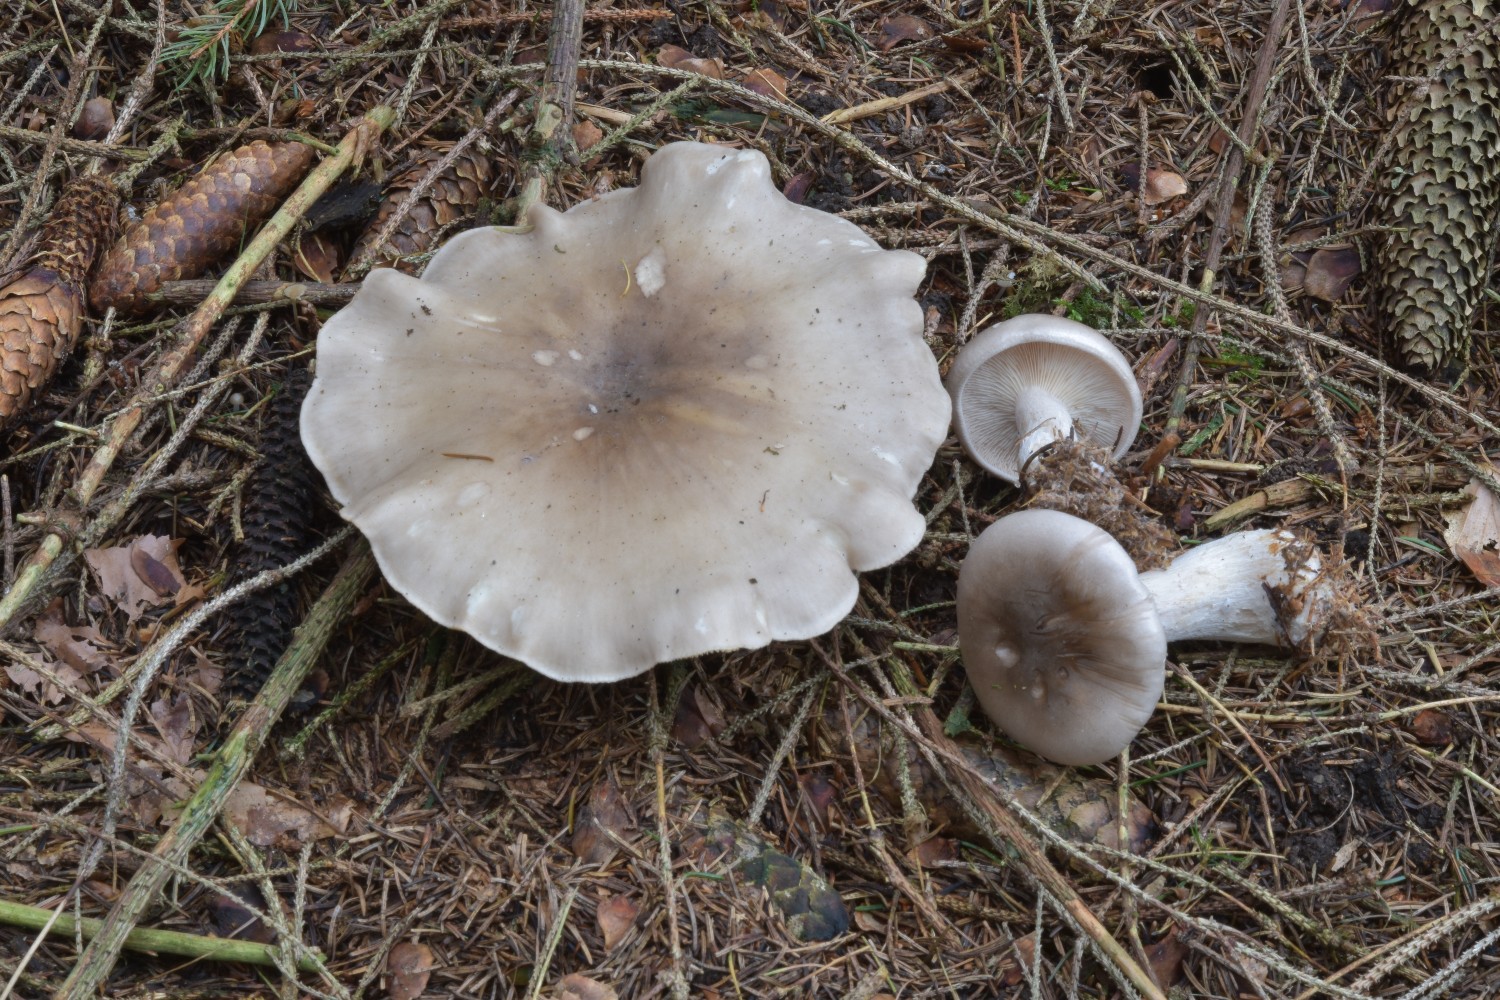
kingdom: Fungi
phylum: Basidiomycota
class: Agaricomycetes
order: Agaricales
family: Tricholomataceae
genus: Clitocybe
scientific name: Clitocybe nebularis
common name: tåge-tragthat
